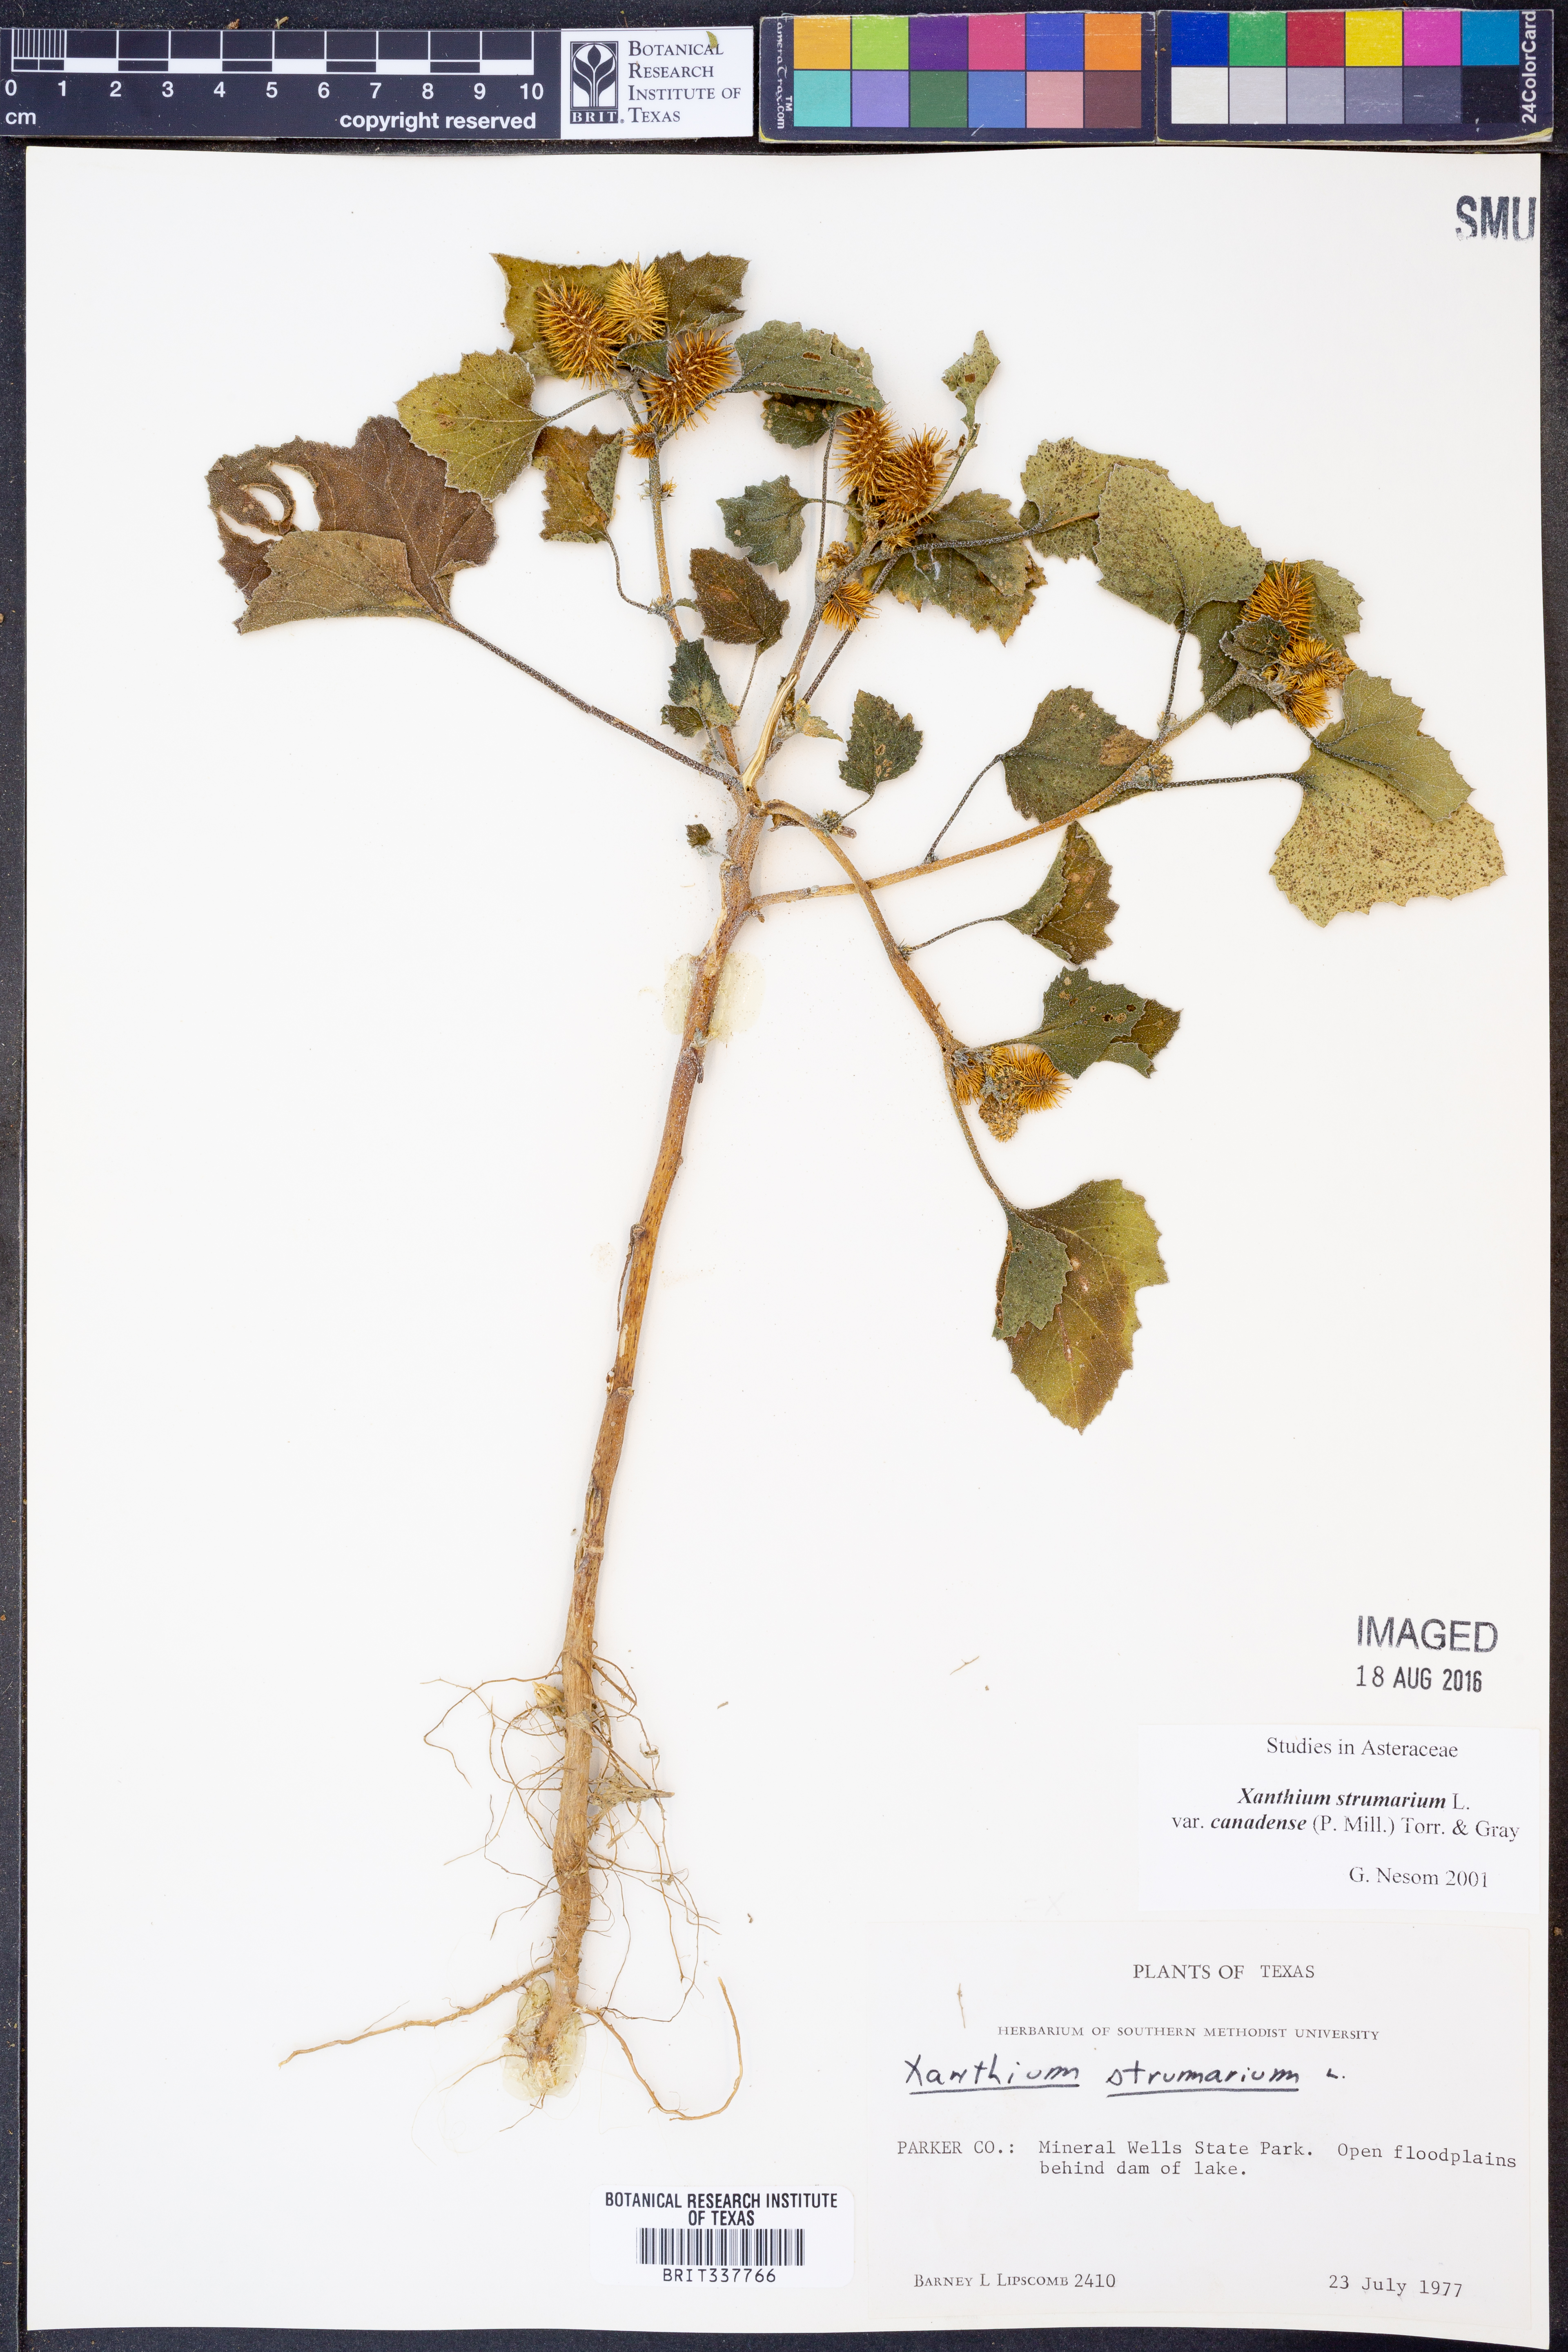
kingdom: Plantae
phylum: Tracheophyta
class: Magnoliopsida
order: Asterales
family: Asteraceae
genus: Xanthium
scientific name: Xanthium orientale
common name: Californian burr
